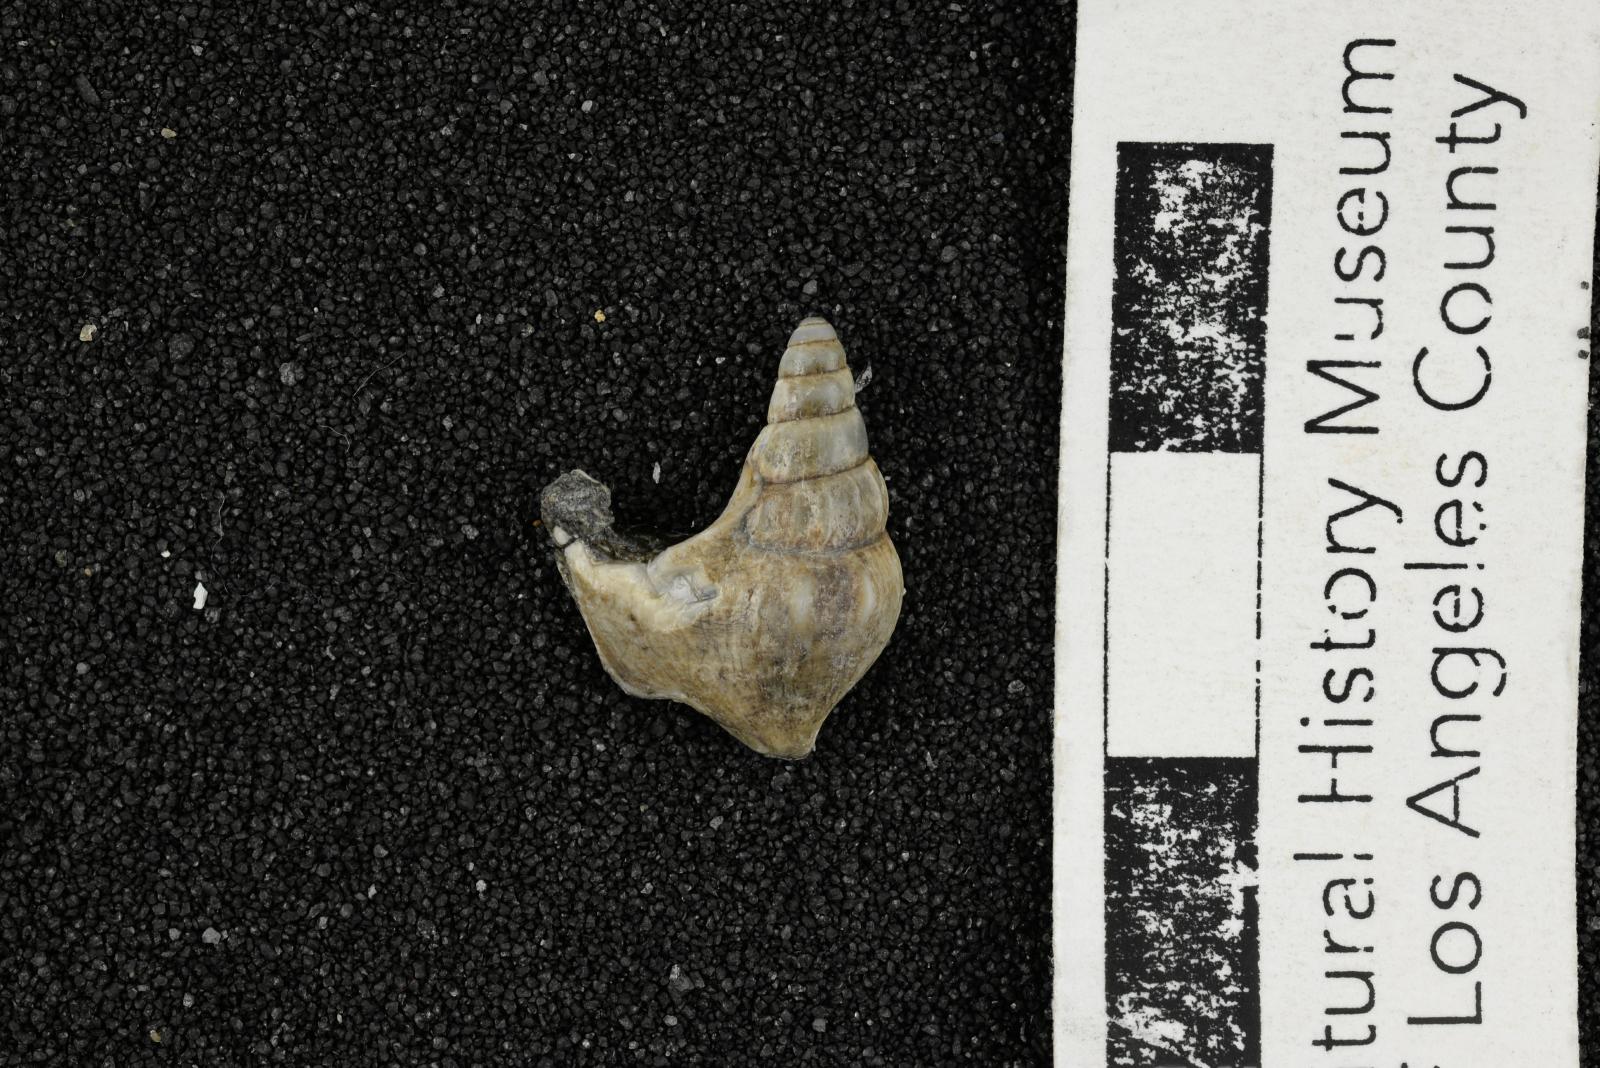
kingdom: Animalia
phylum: Mollusca
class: Gastropoda
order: Littorinimorpha
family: Aporrhaidae
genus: Latiala
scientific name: Latiala heliaca
